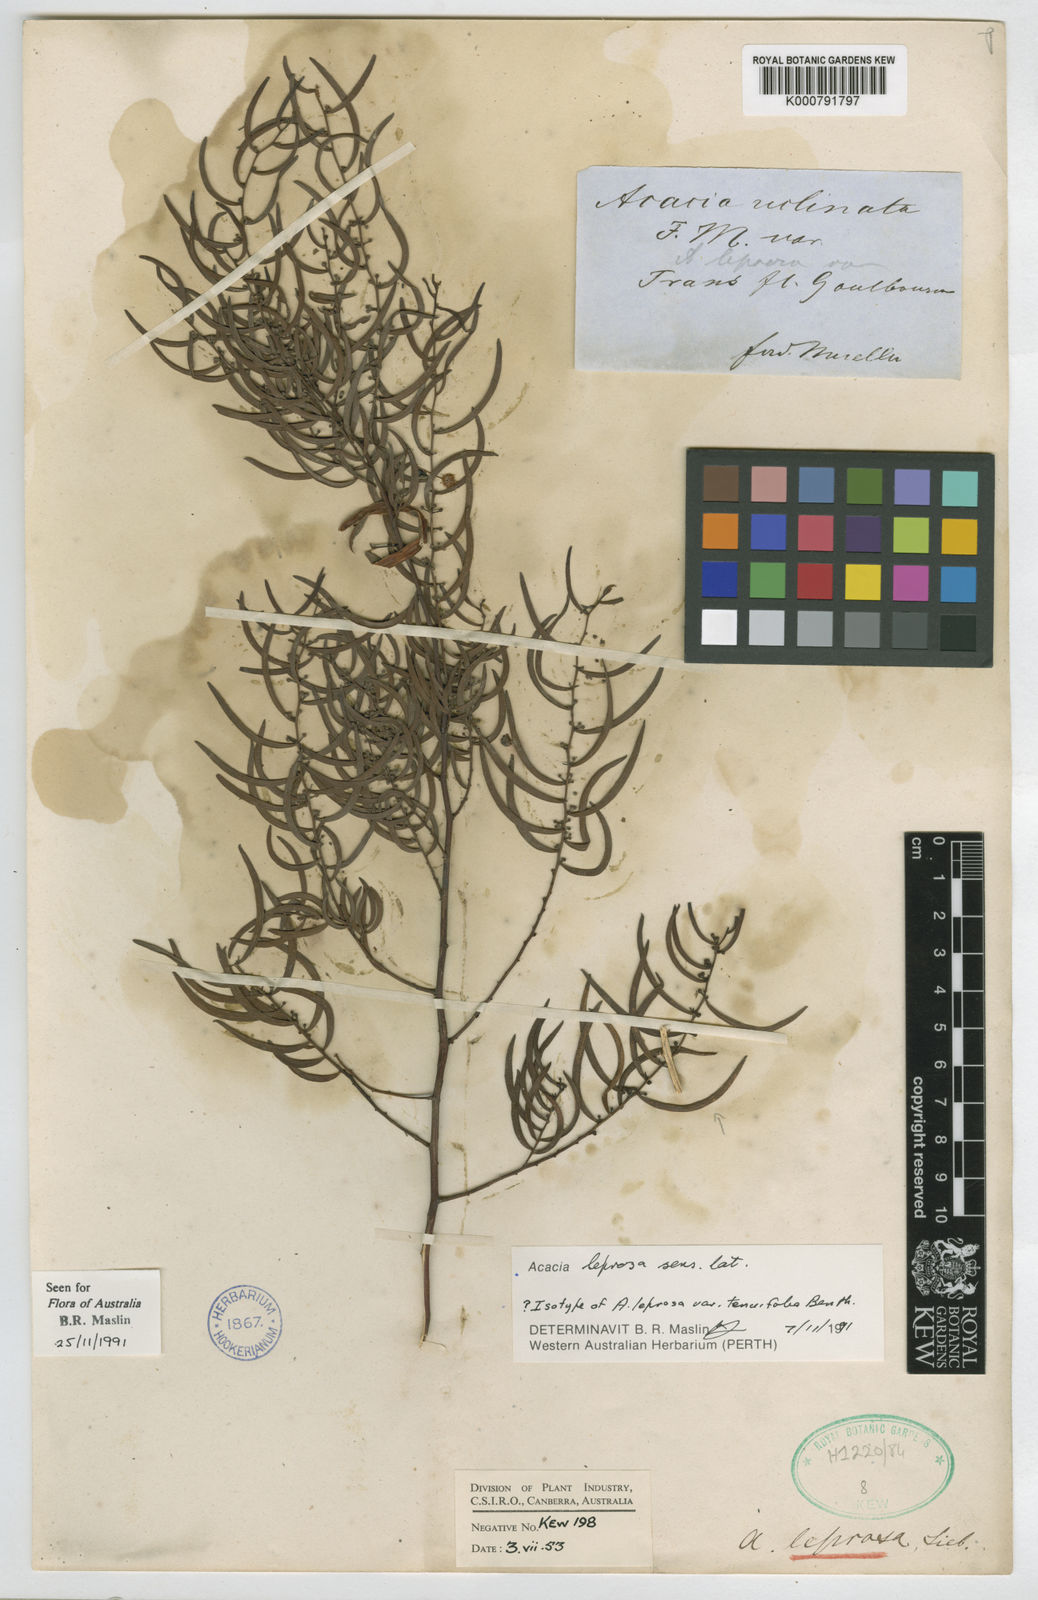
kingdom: Plantae
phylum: Tracheophyta
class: Magnoliopsida
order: Fabales
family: Fabaceae
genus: Acacia
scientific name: Acacia leprosa
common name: Cinnamon wattle
